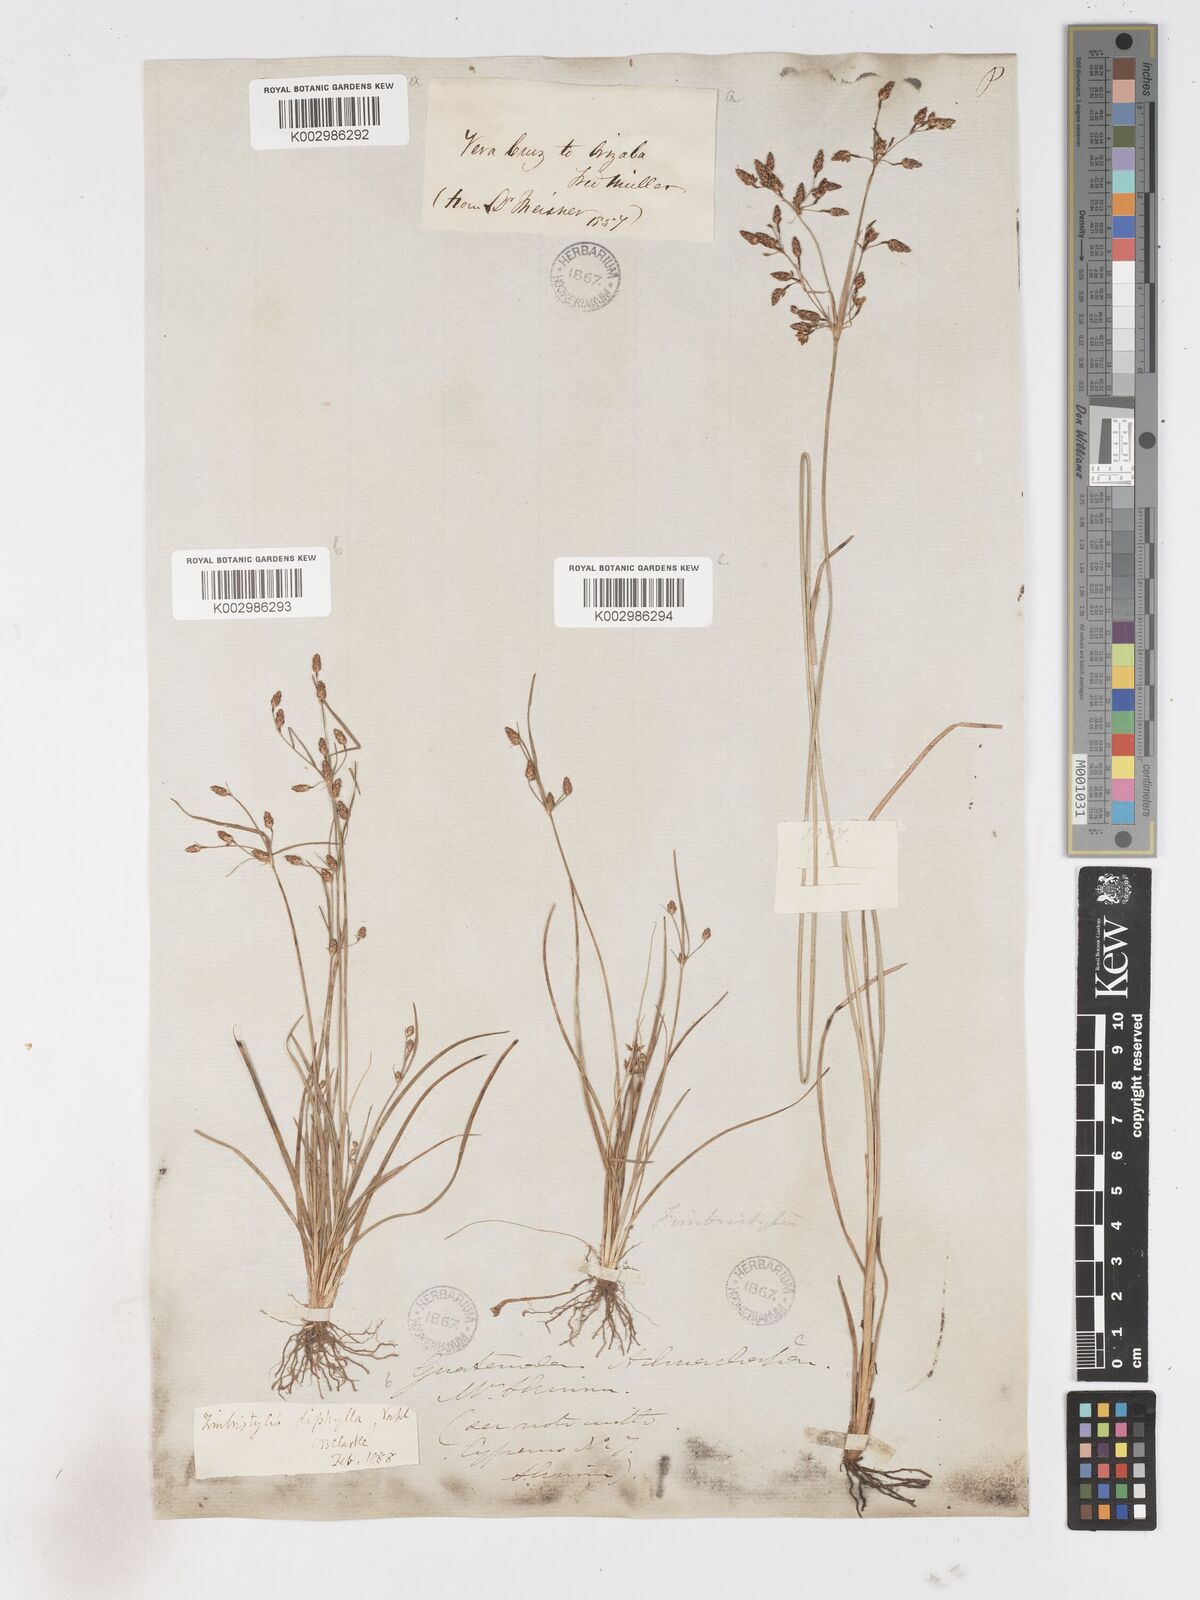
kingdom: Plantae
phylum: Tracheophyta
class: Liliopsida
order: Poales
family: Cyperaceae
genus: Fimbristylis
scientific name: Fimbristylis dichotoma
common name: Forked fimbry
